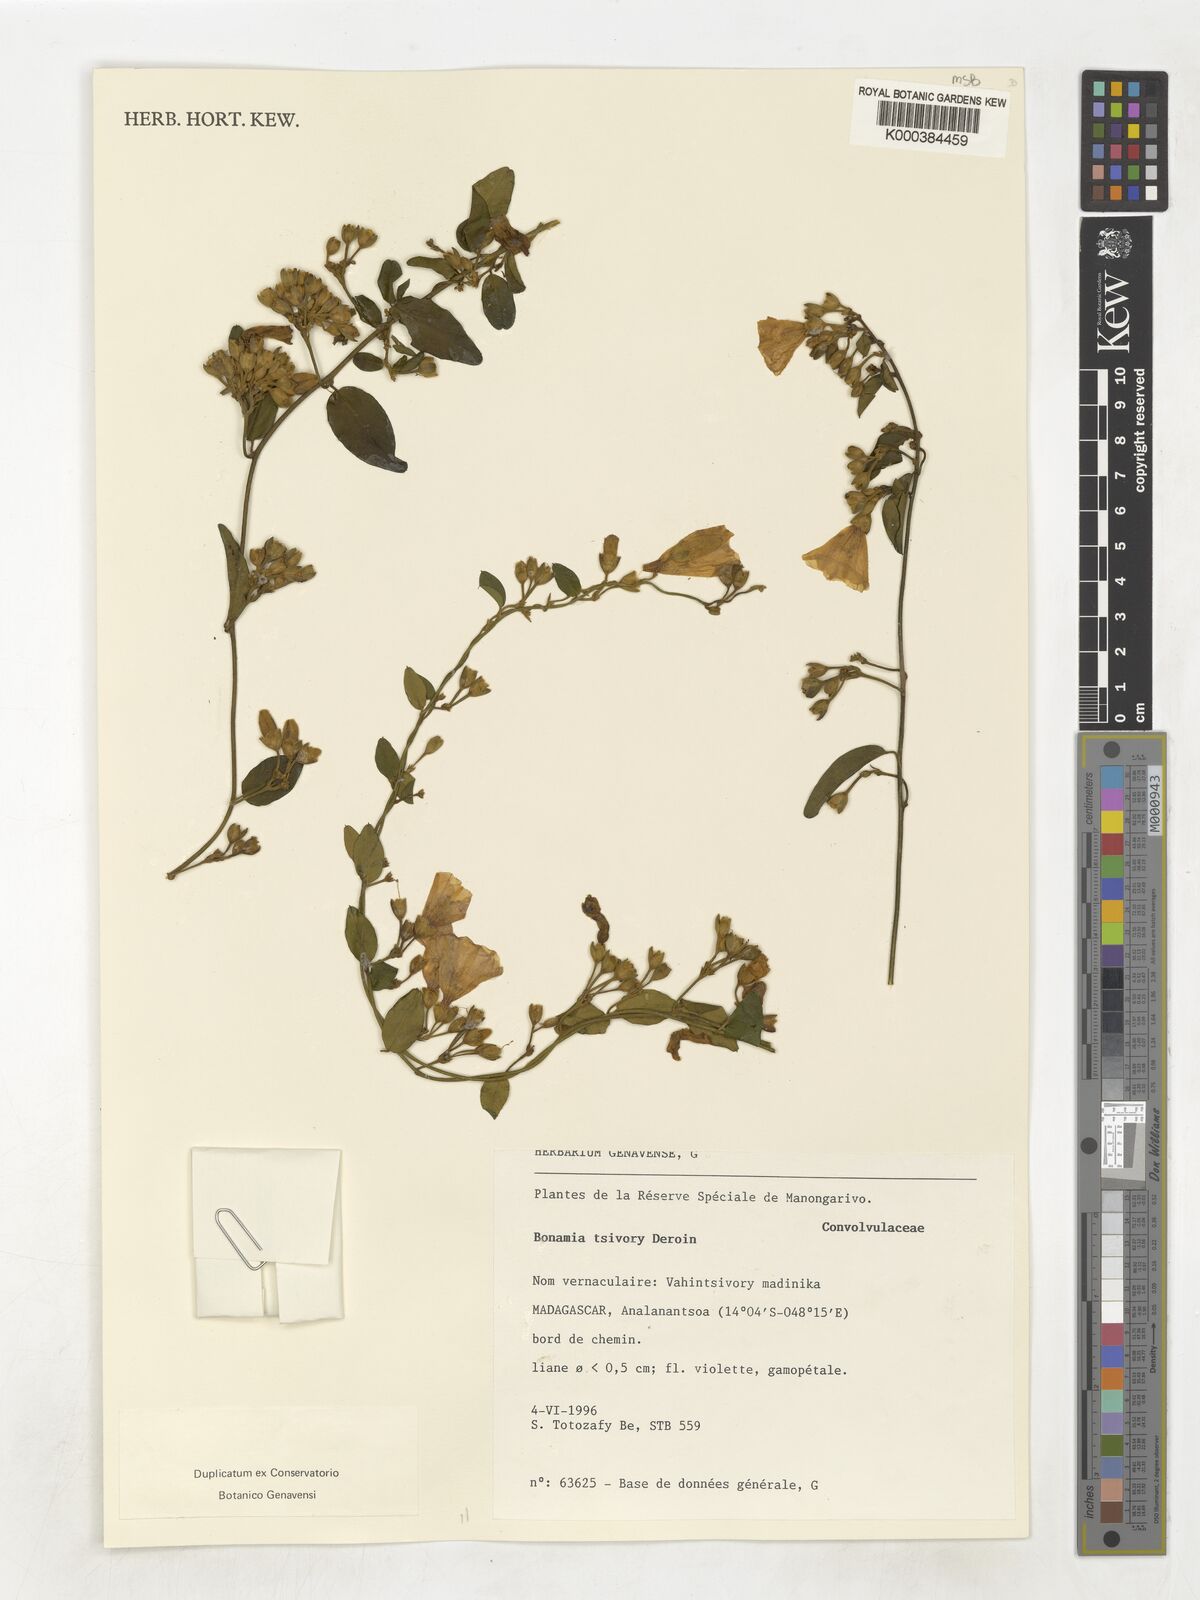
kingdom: Plantae
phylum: Tracheophyta
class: Magnoliopsida
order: Solanales
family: Convolvulaceae
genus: Bonamia
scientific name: Bonamia tsivory
